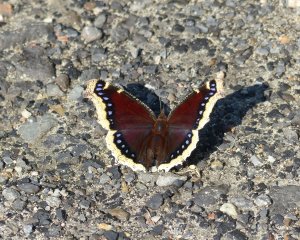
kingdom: Animalia
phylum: Arthropoda
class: Insecta
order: Lepidoptera
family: Nymphalidae
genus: Nymphalis
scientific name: Nymphalis antiopa
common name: Mourning Cloak
